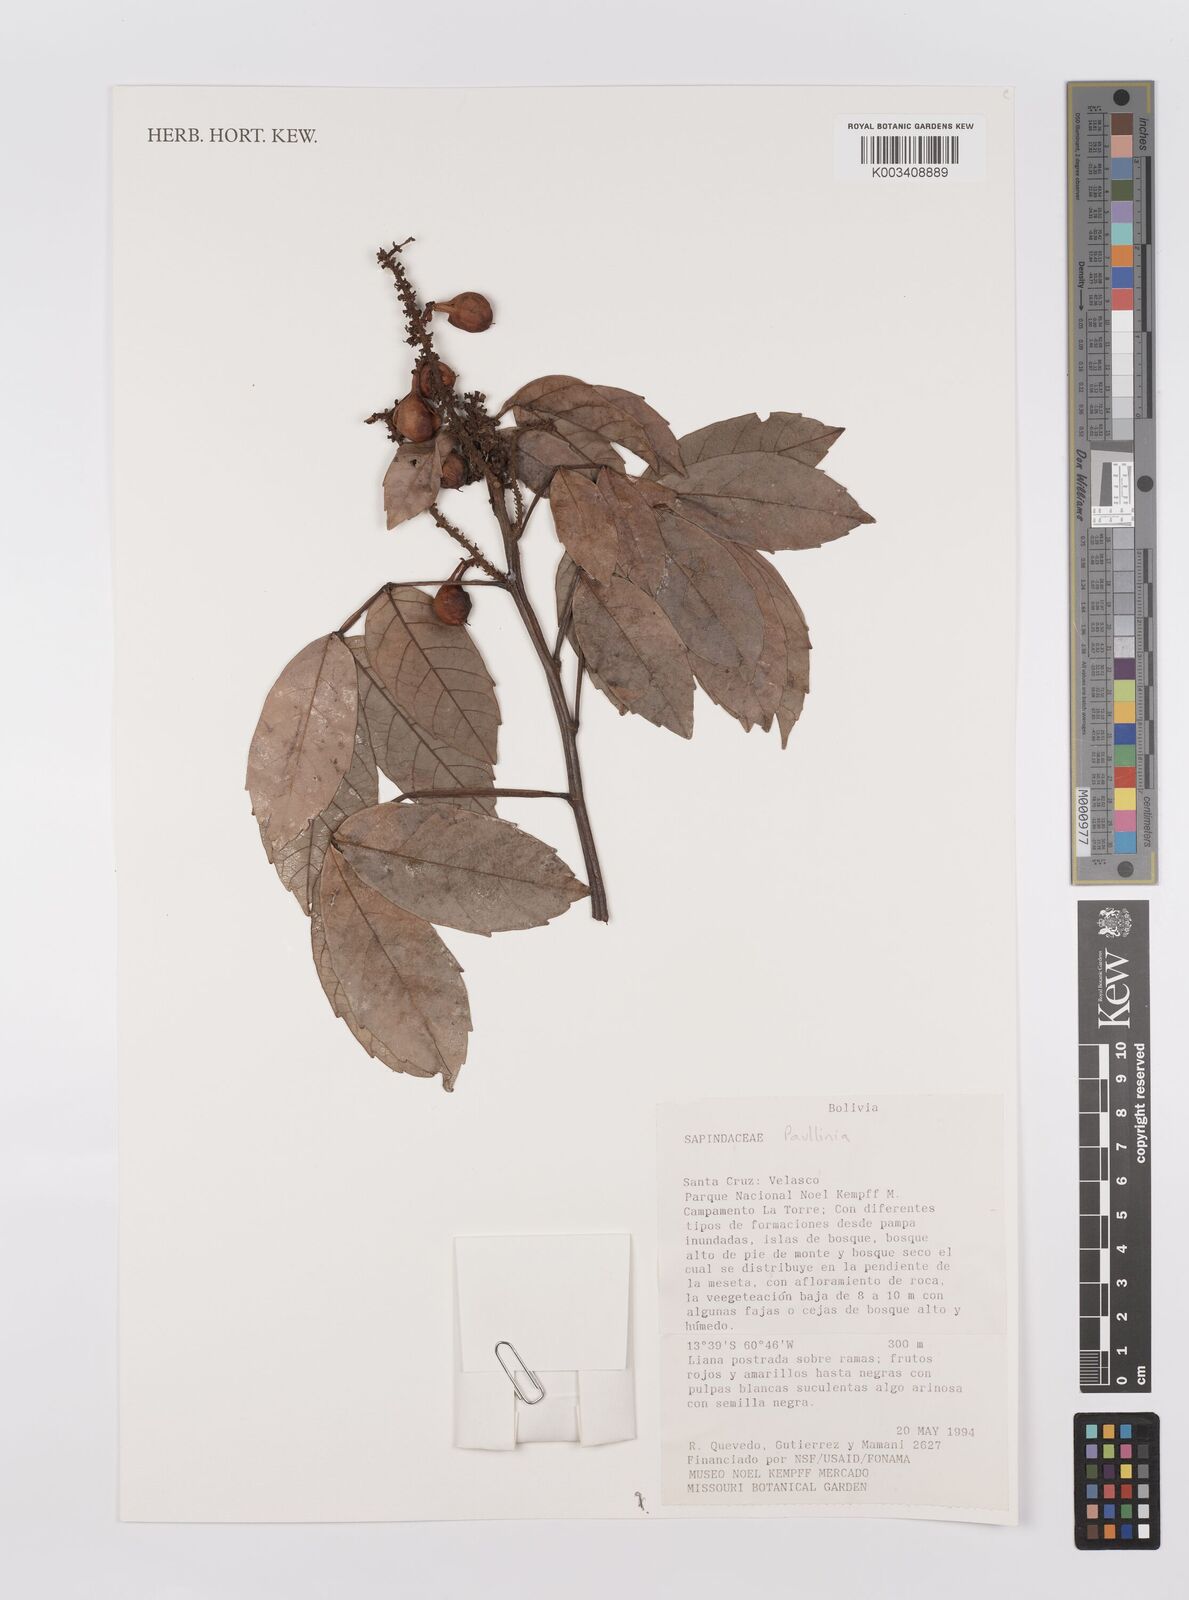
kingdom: Plantae
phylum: Tracheophyta
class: Magnoliopsida
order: Sapindales
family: Sapindaceae
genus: Paullinia
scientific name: Paullinia
